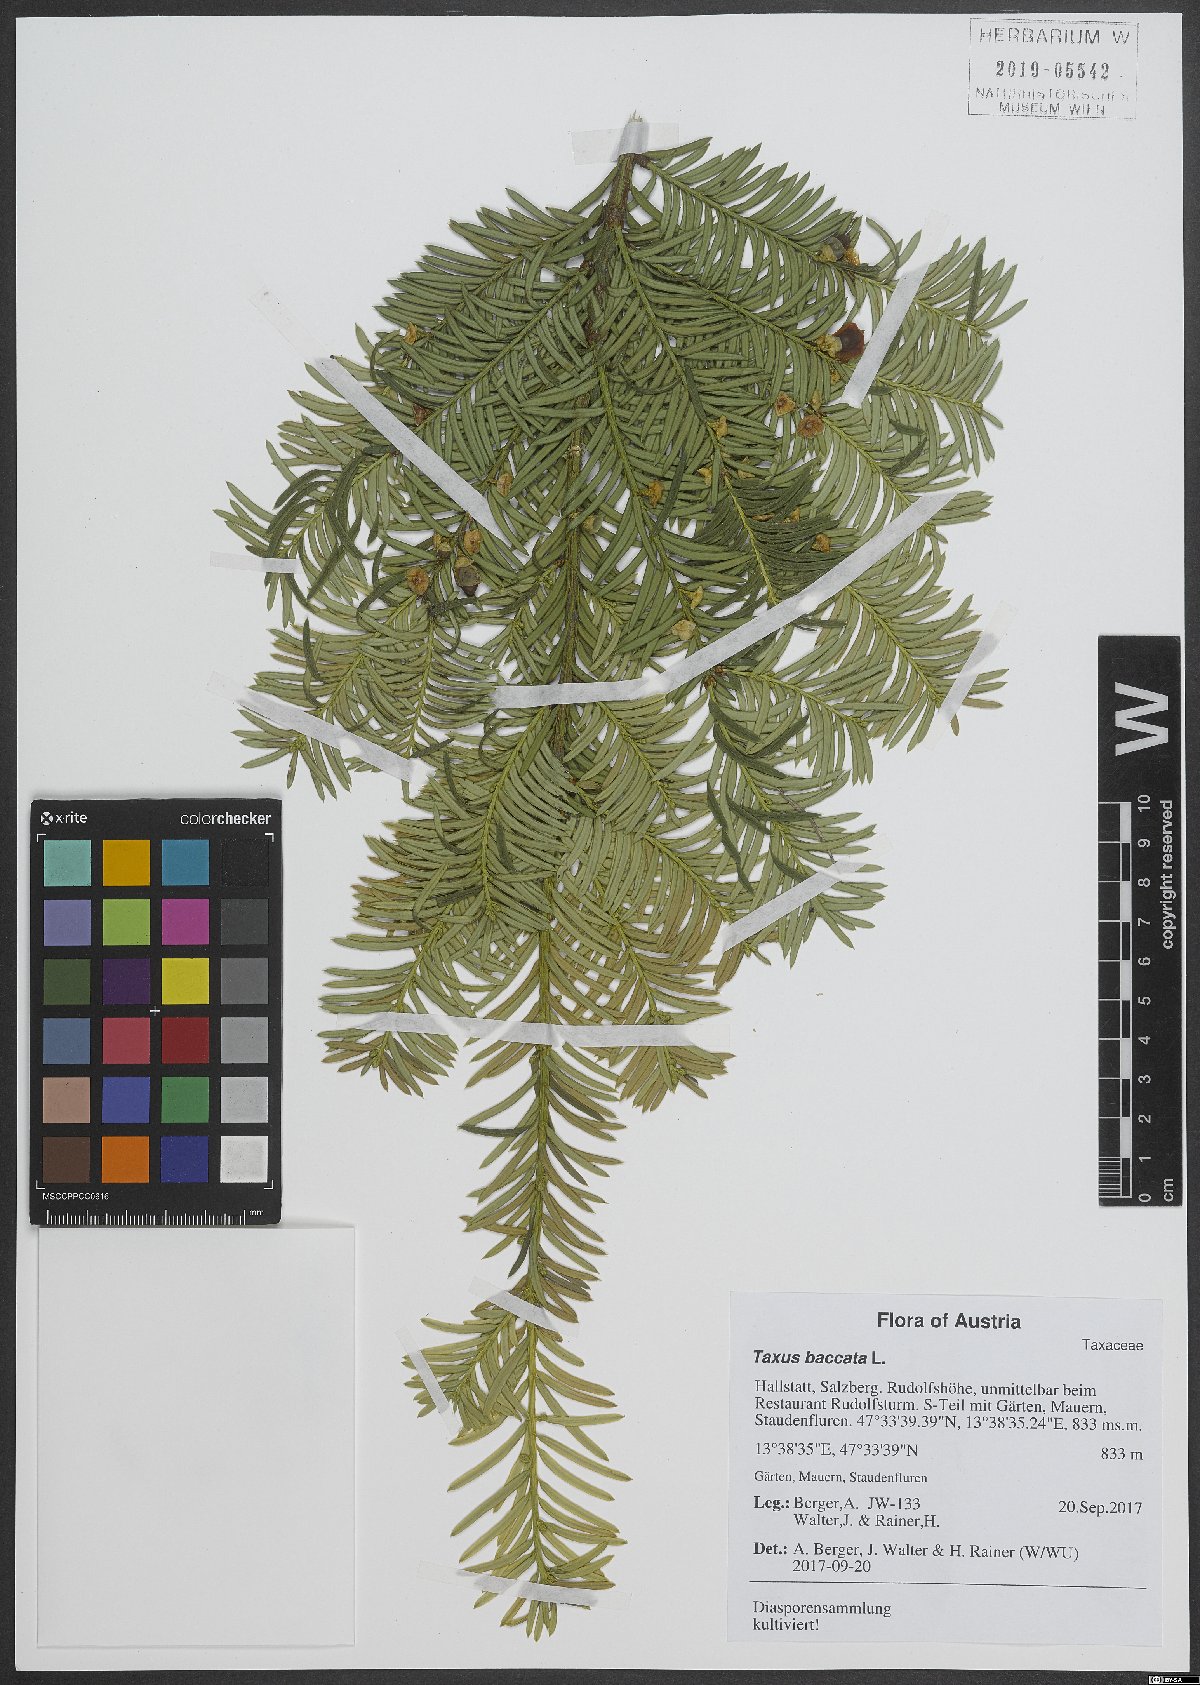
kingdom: Plantae
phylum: Tracheophyta
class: Pinopsida
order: Pinales
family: Taxaceae
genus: Taxus
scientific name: Taxus baccata
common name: Yew
